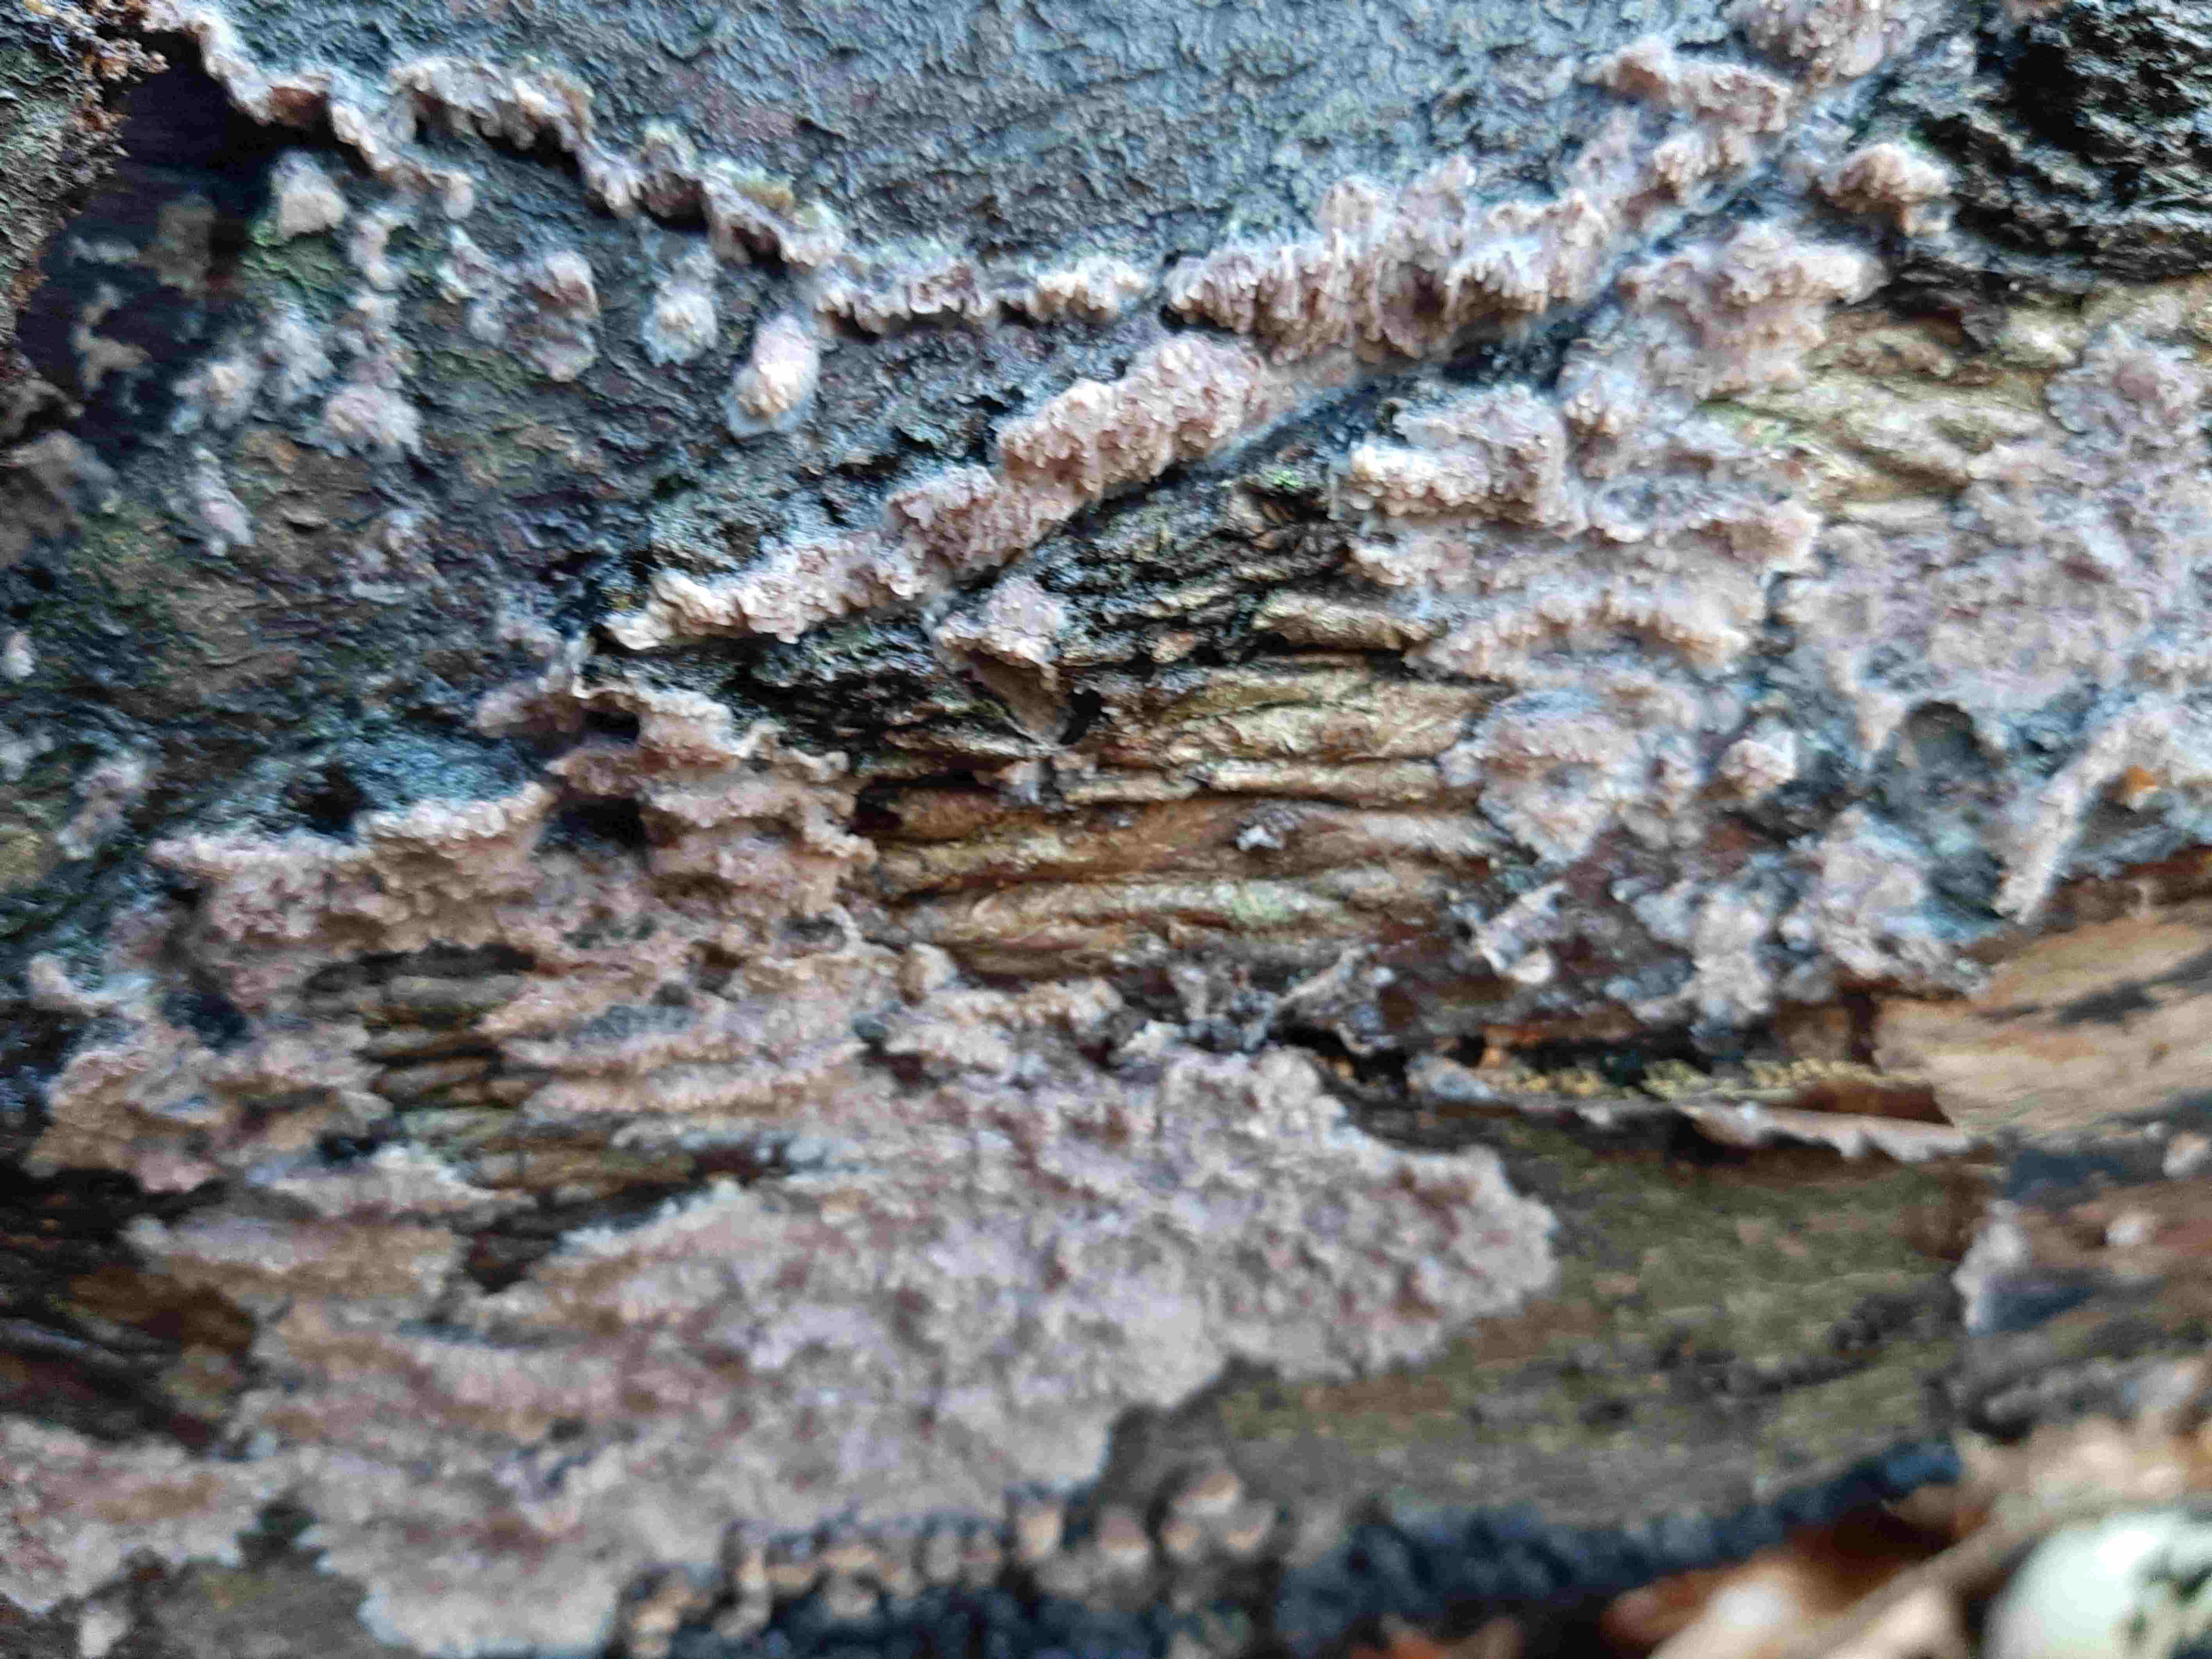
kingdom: Fungi
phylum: Basidiomycota
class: Agaricomycetes
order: Polyporales
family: Meruliaceae
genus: Phlebia
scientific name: Phlebia
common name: åresvamp
